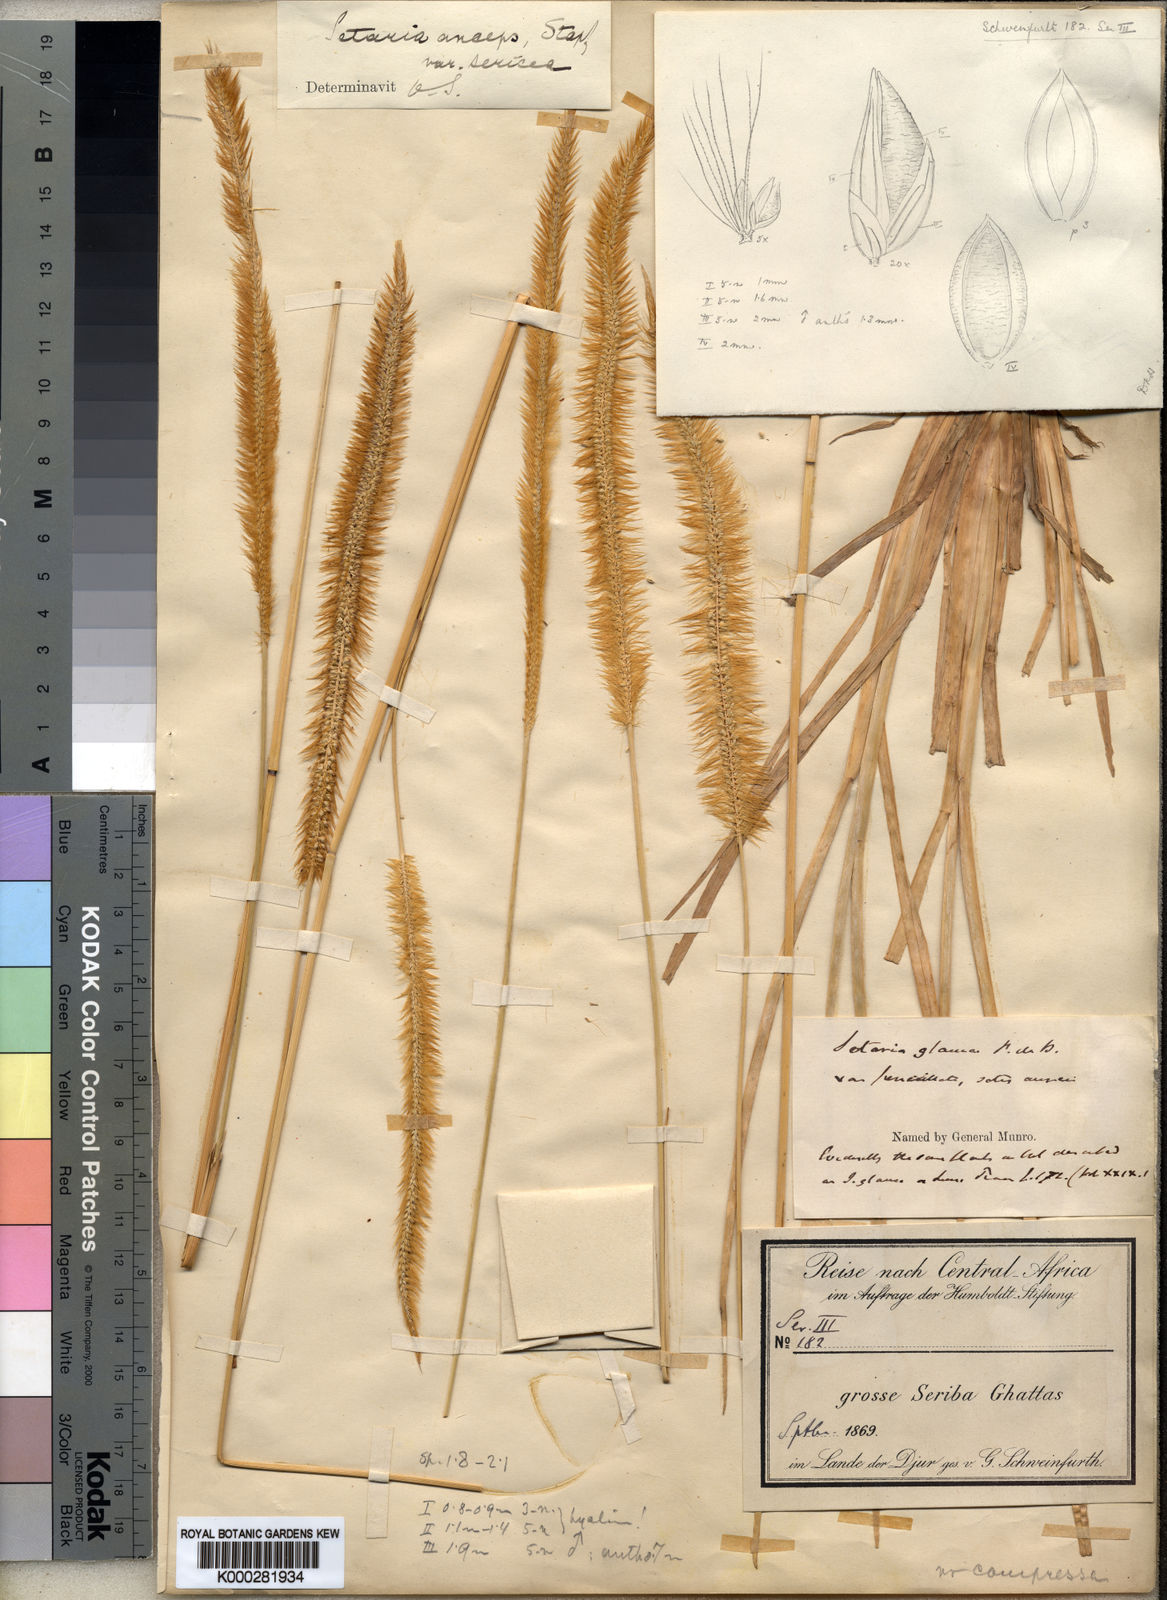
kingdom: Plantae
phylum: Tracheophyta
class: Liliopsida
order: Poales
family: Poaceae
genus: Setaria
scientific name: Setaria sphacelata
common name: African bristlegrass
